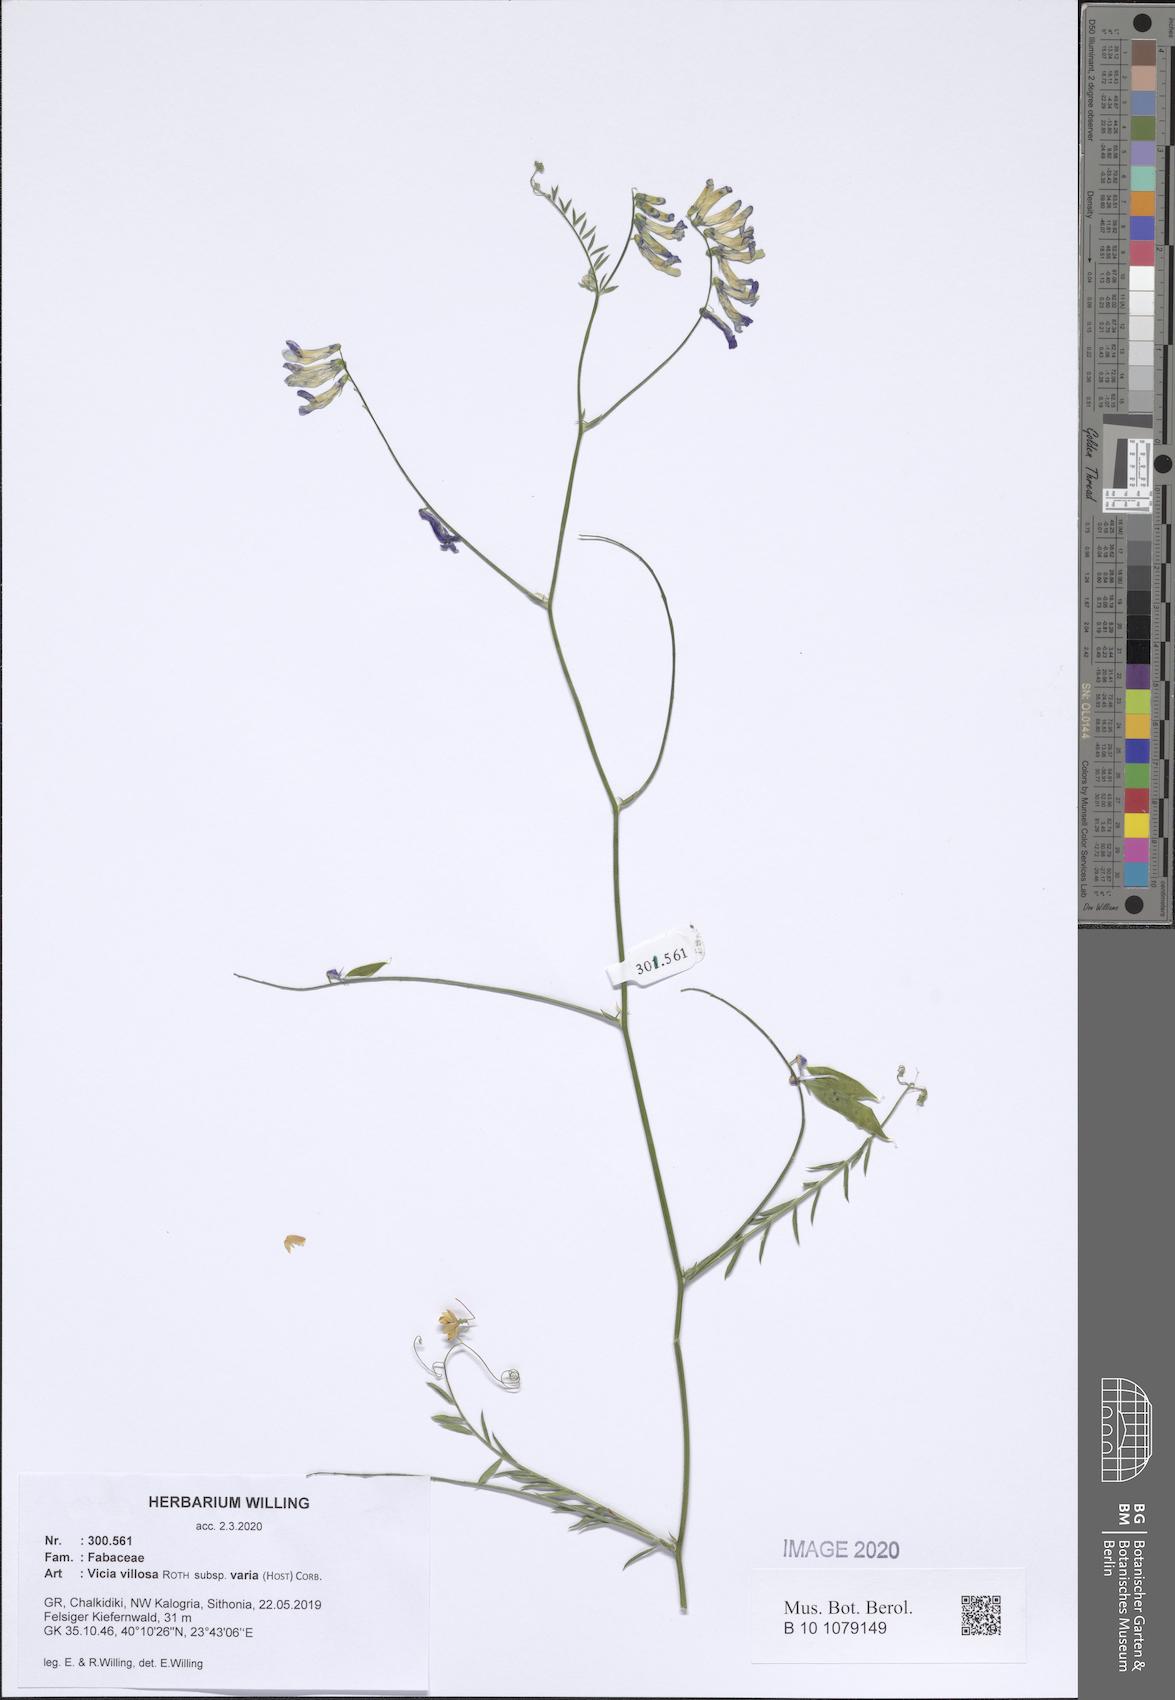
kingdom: Plantae
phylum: Tracheophyta
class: Magnoliopsida
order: Fabales
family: Fabaceae
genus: Vicia
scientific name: Vicia villosa
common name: Fodder vetch
